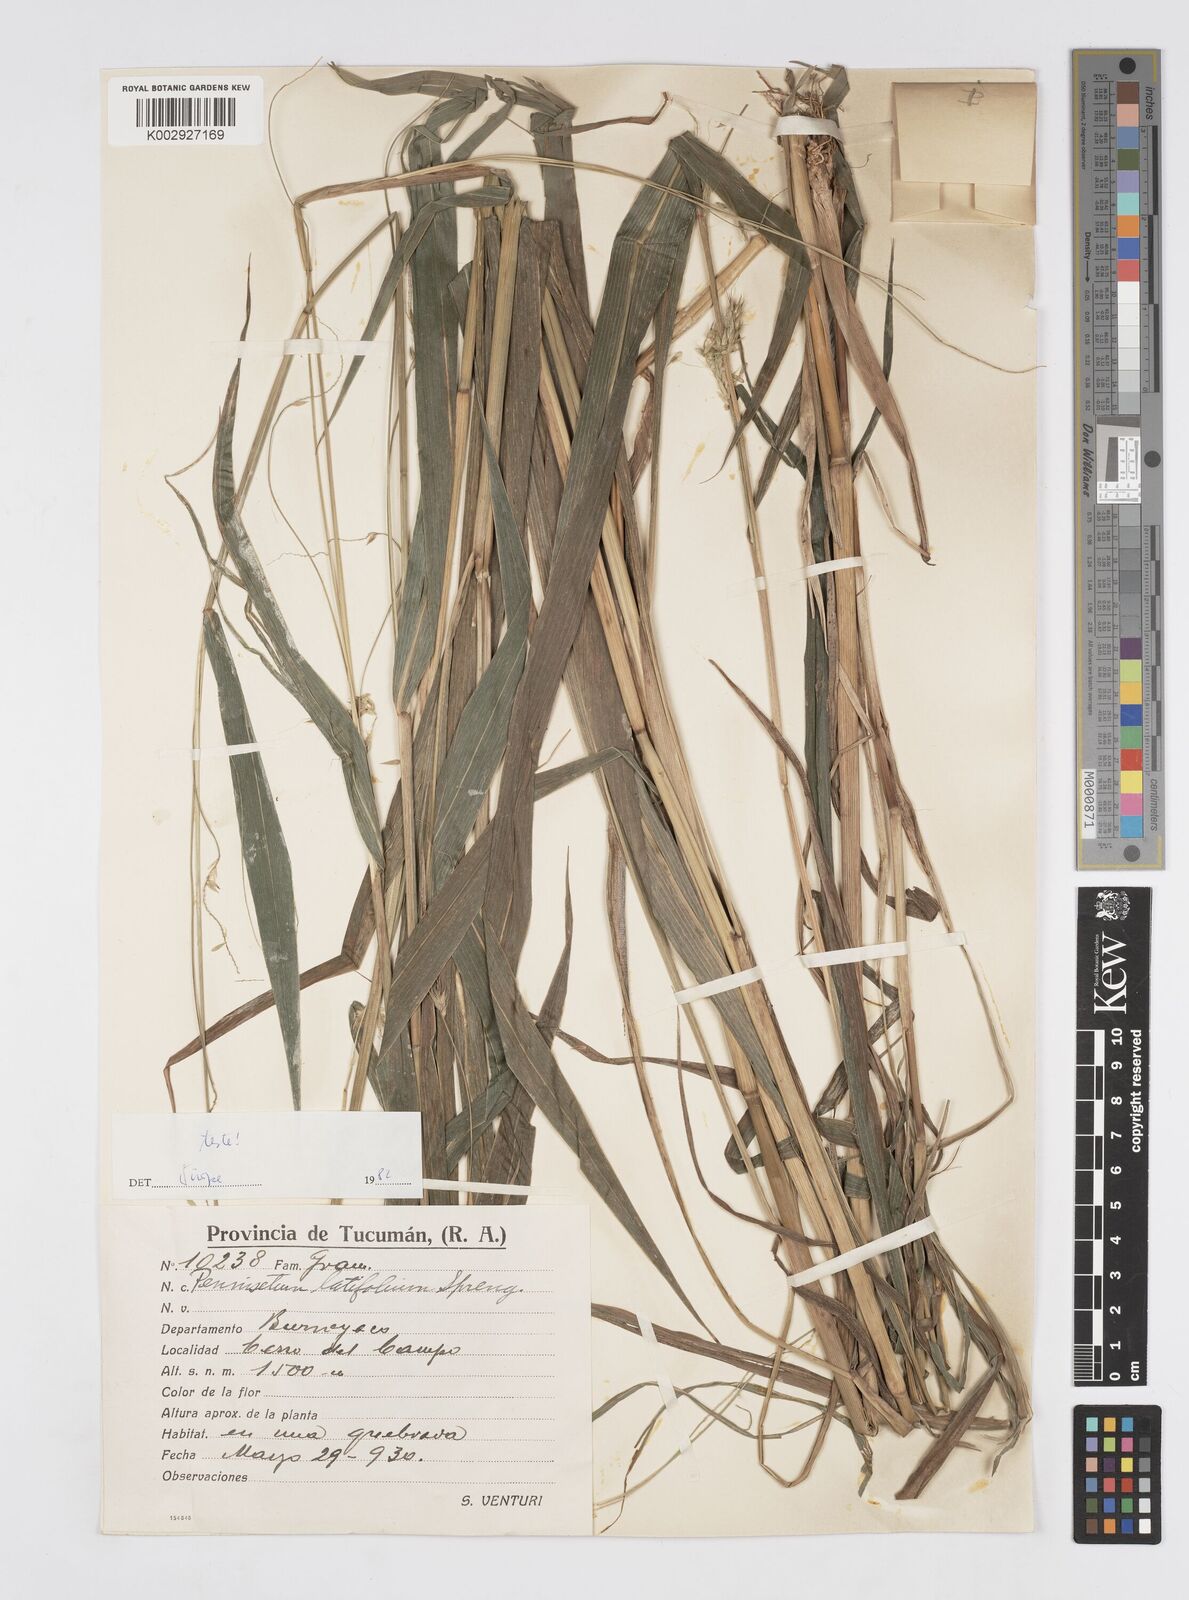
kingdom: Plantae
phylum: Tracheophyta
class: Liliopsida
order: Poales
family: Poaceae
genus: Cenchrus
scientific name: Cenchrus latifolius
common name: Sandbur
